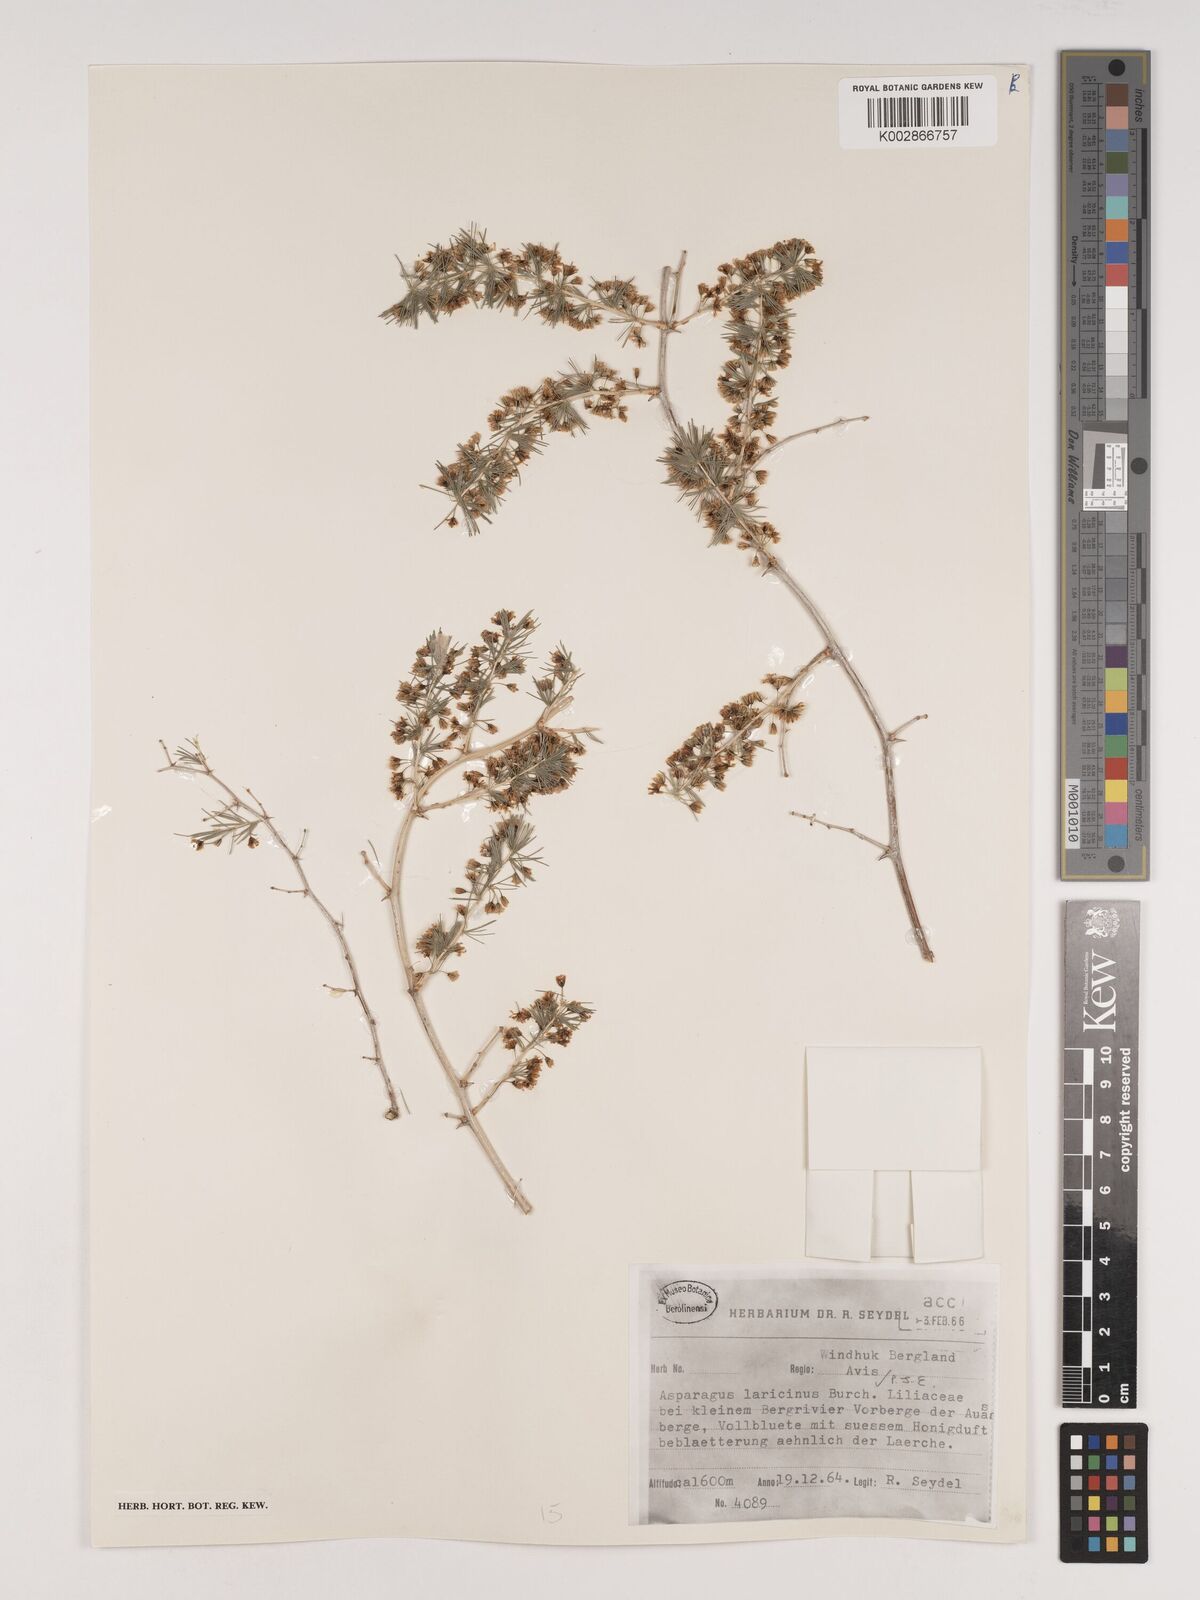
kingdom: Plantae
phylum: Tracheophyta
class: Liliopsida
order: Asparagales
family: Asparagaceae
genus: Asparagus
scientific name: Asparagus laricinus
